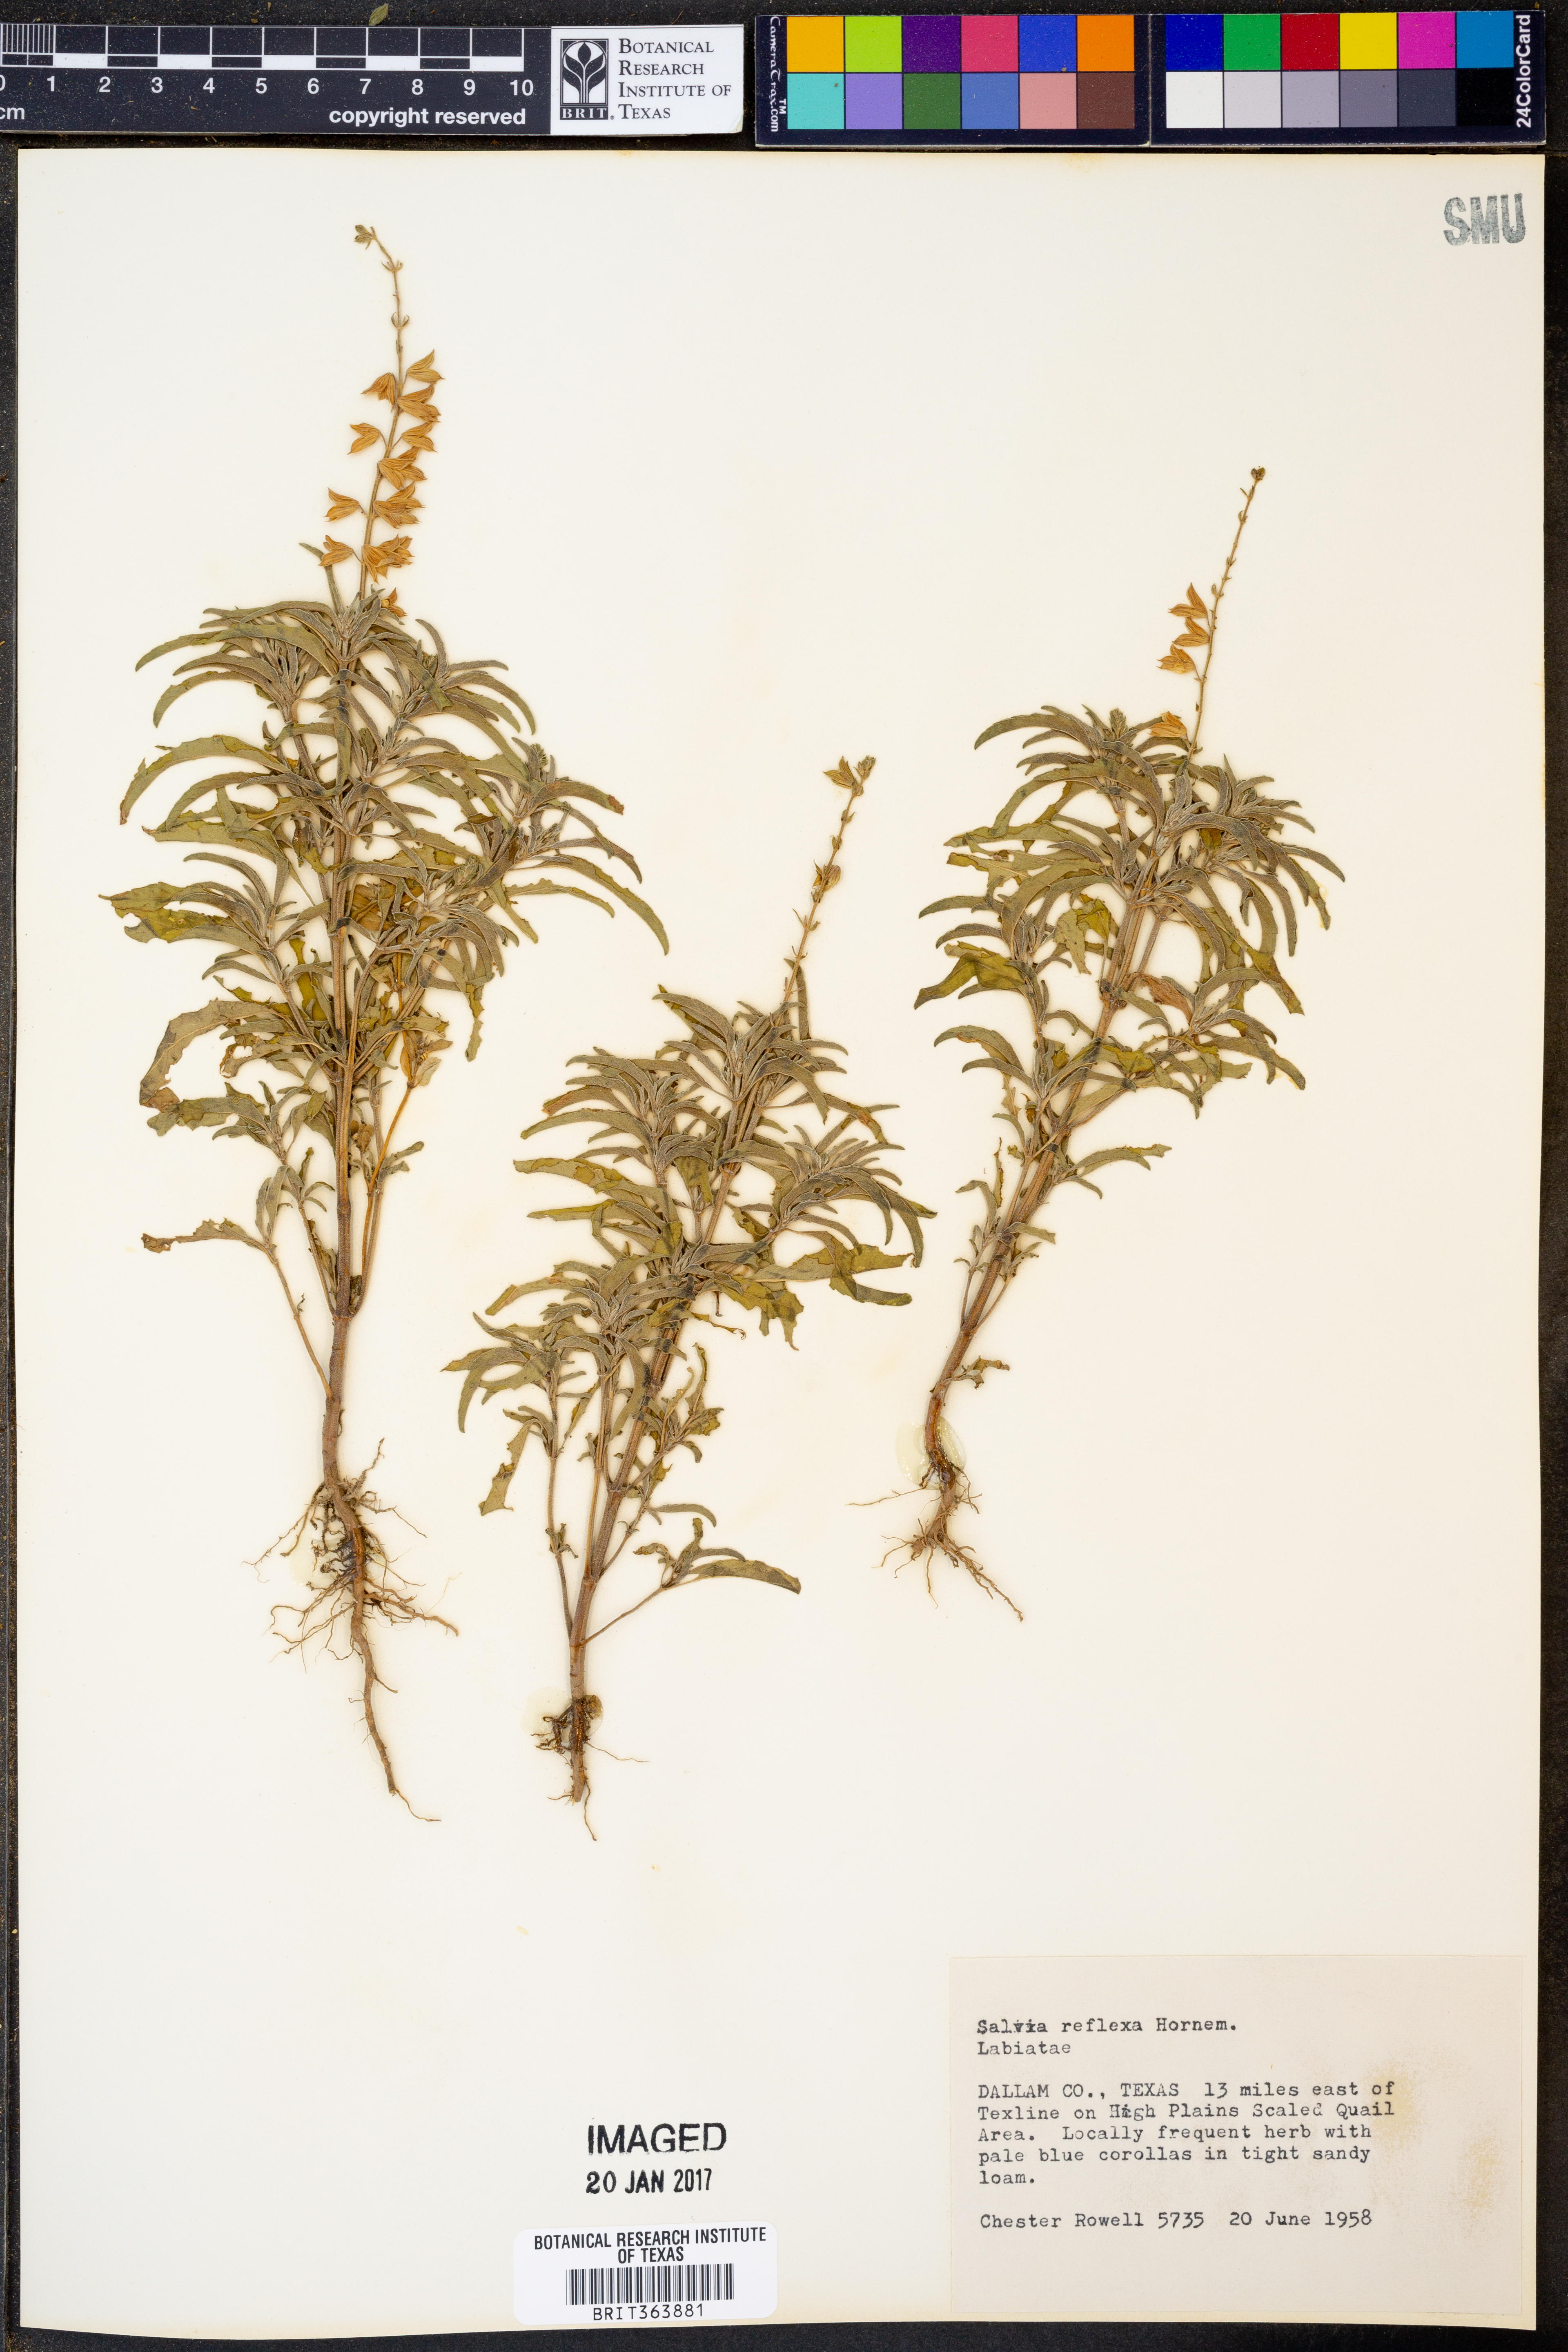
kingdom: Plantae
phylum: Tracheophyta
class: Magnoliopsida
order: Lamiales
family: Lamiaceae
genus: Salvia
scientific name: Salvia reflexa
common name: Mintweed
